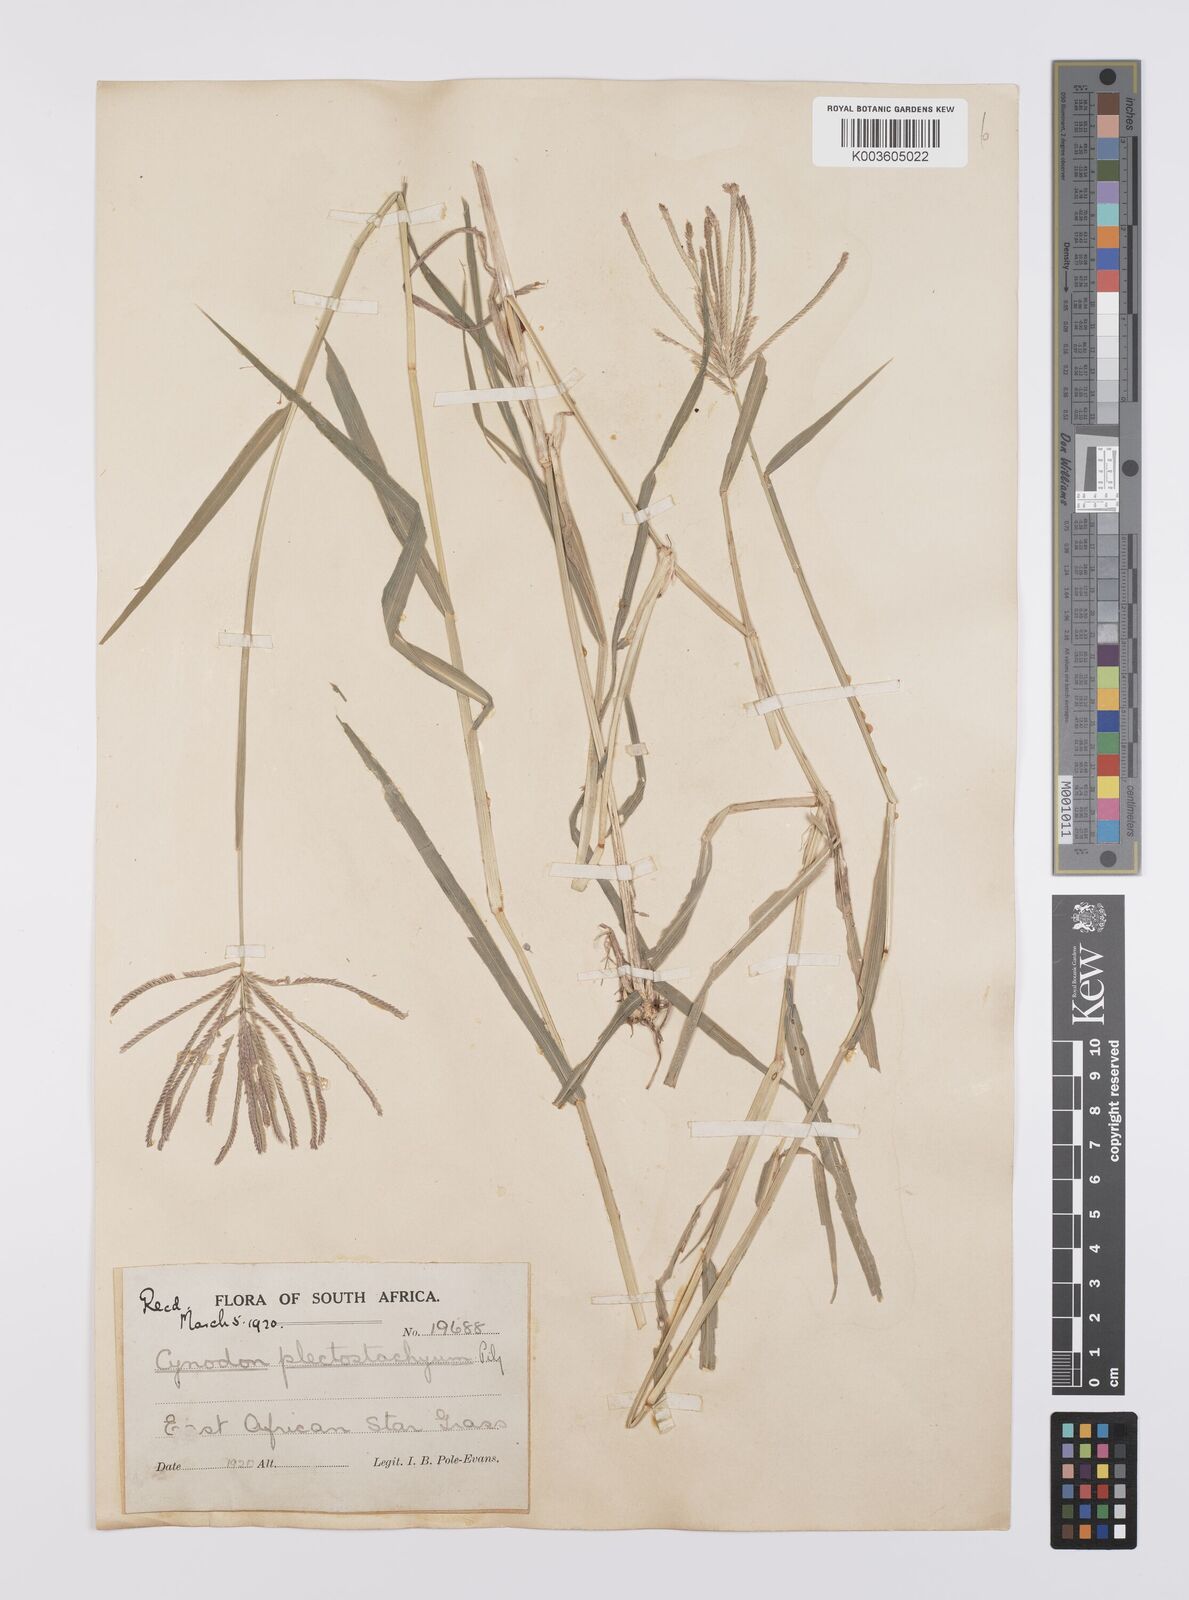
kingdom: Plantae
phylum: Tracheophyta
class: Liliopsida
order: Poales
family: Poaceae
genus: Cynodon
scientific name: Cynodon plectostachyus
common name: Stargrass
